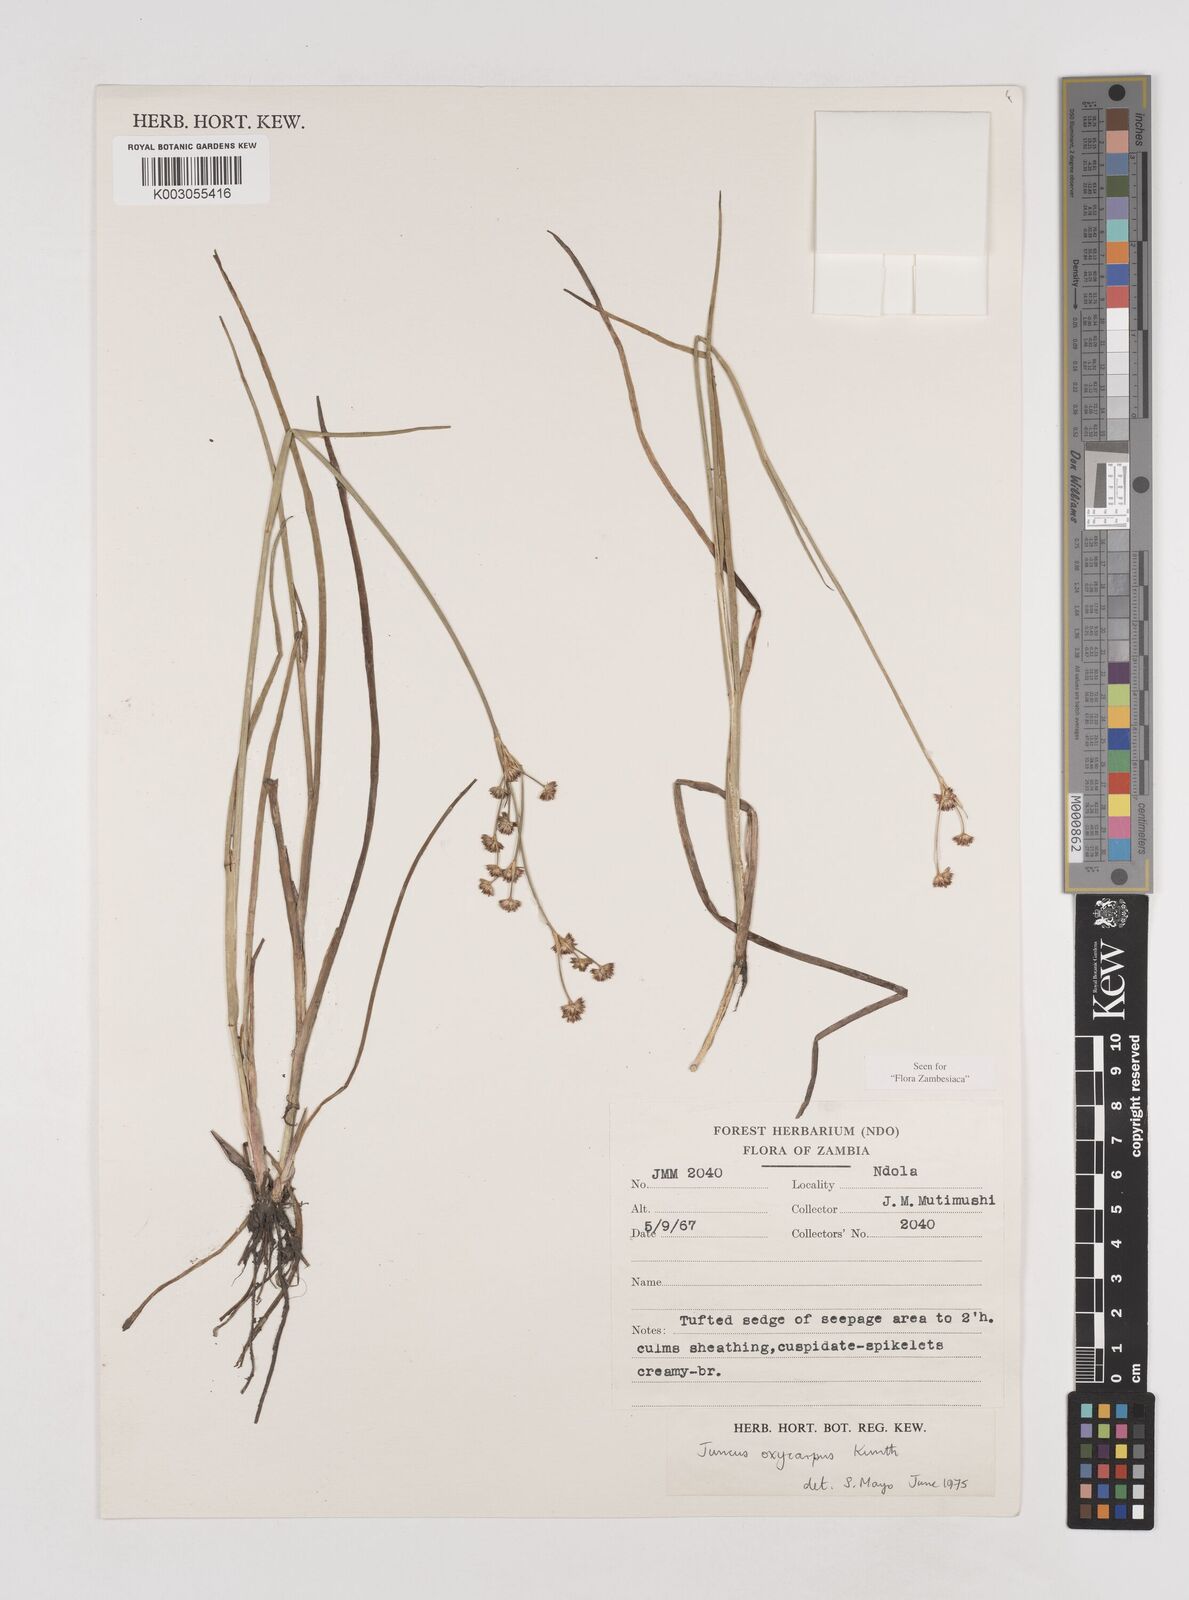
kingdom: Plantae
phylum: Tracheophyta
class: Liliopsida
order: Poales
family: Juncaceae
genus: Juncus
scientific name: Juncus oxycarpus
